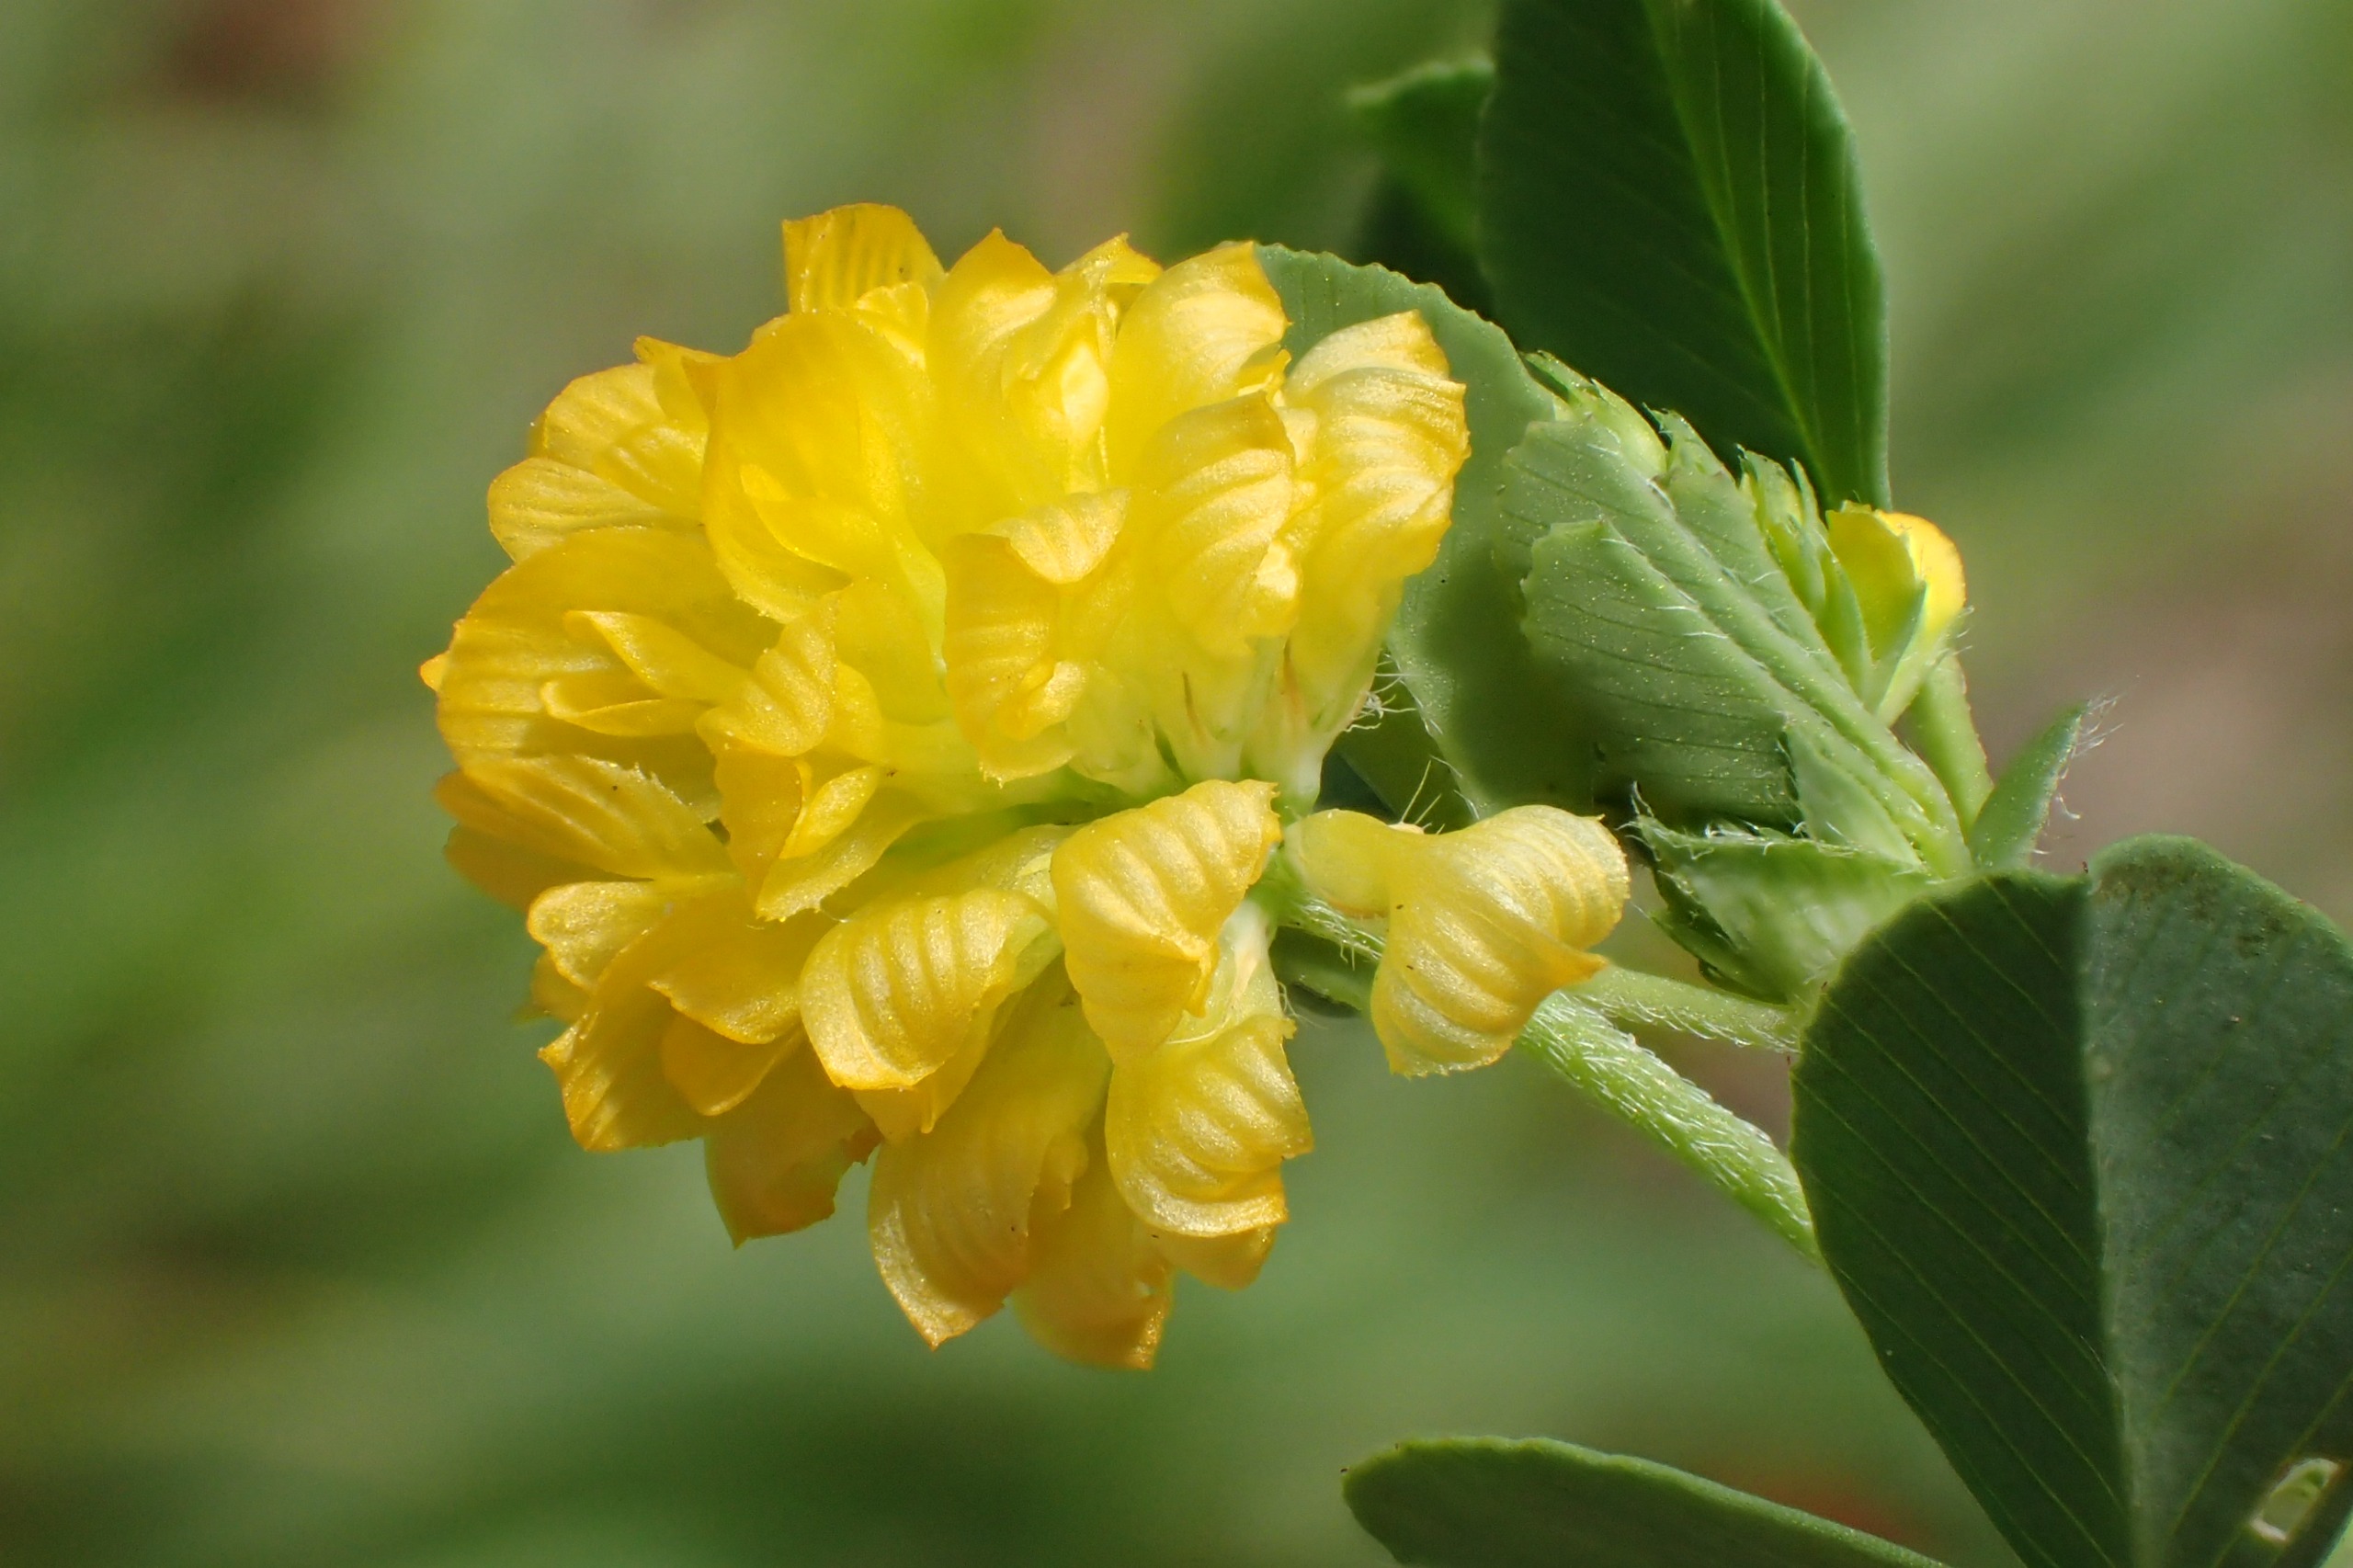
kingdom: Plantae
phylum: Tracheophyta
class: Magnoliopsida
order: Fabales
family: Fabaceae
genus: Trifolium
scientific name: Trifolium campestre
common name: Gul kløver
